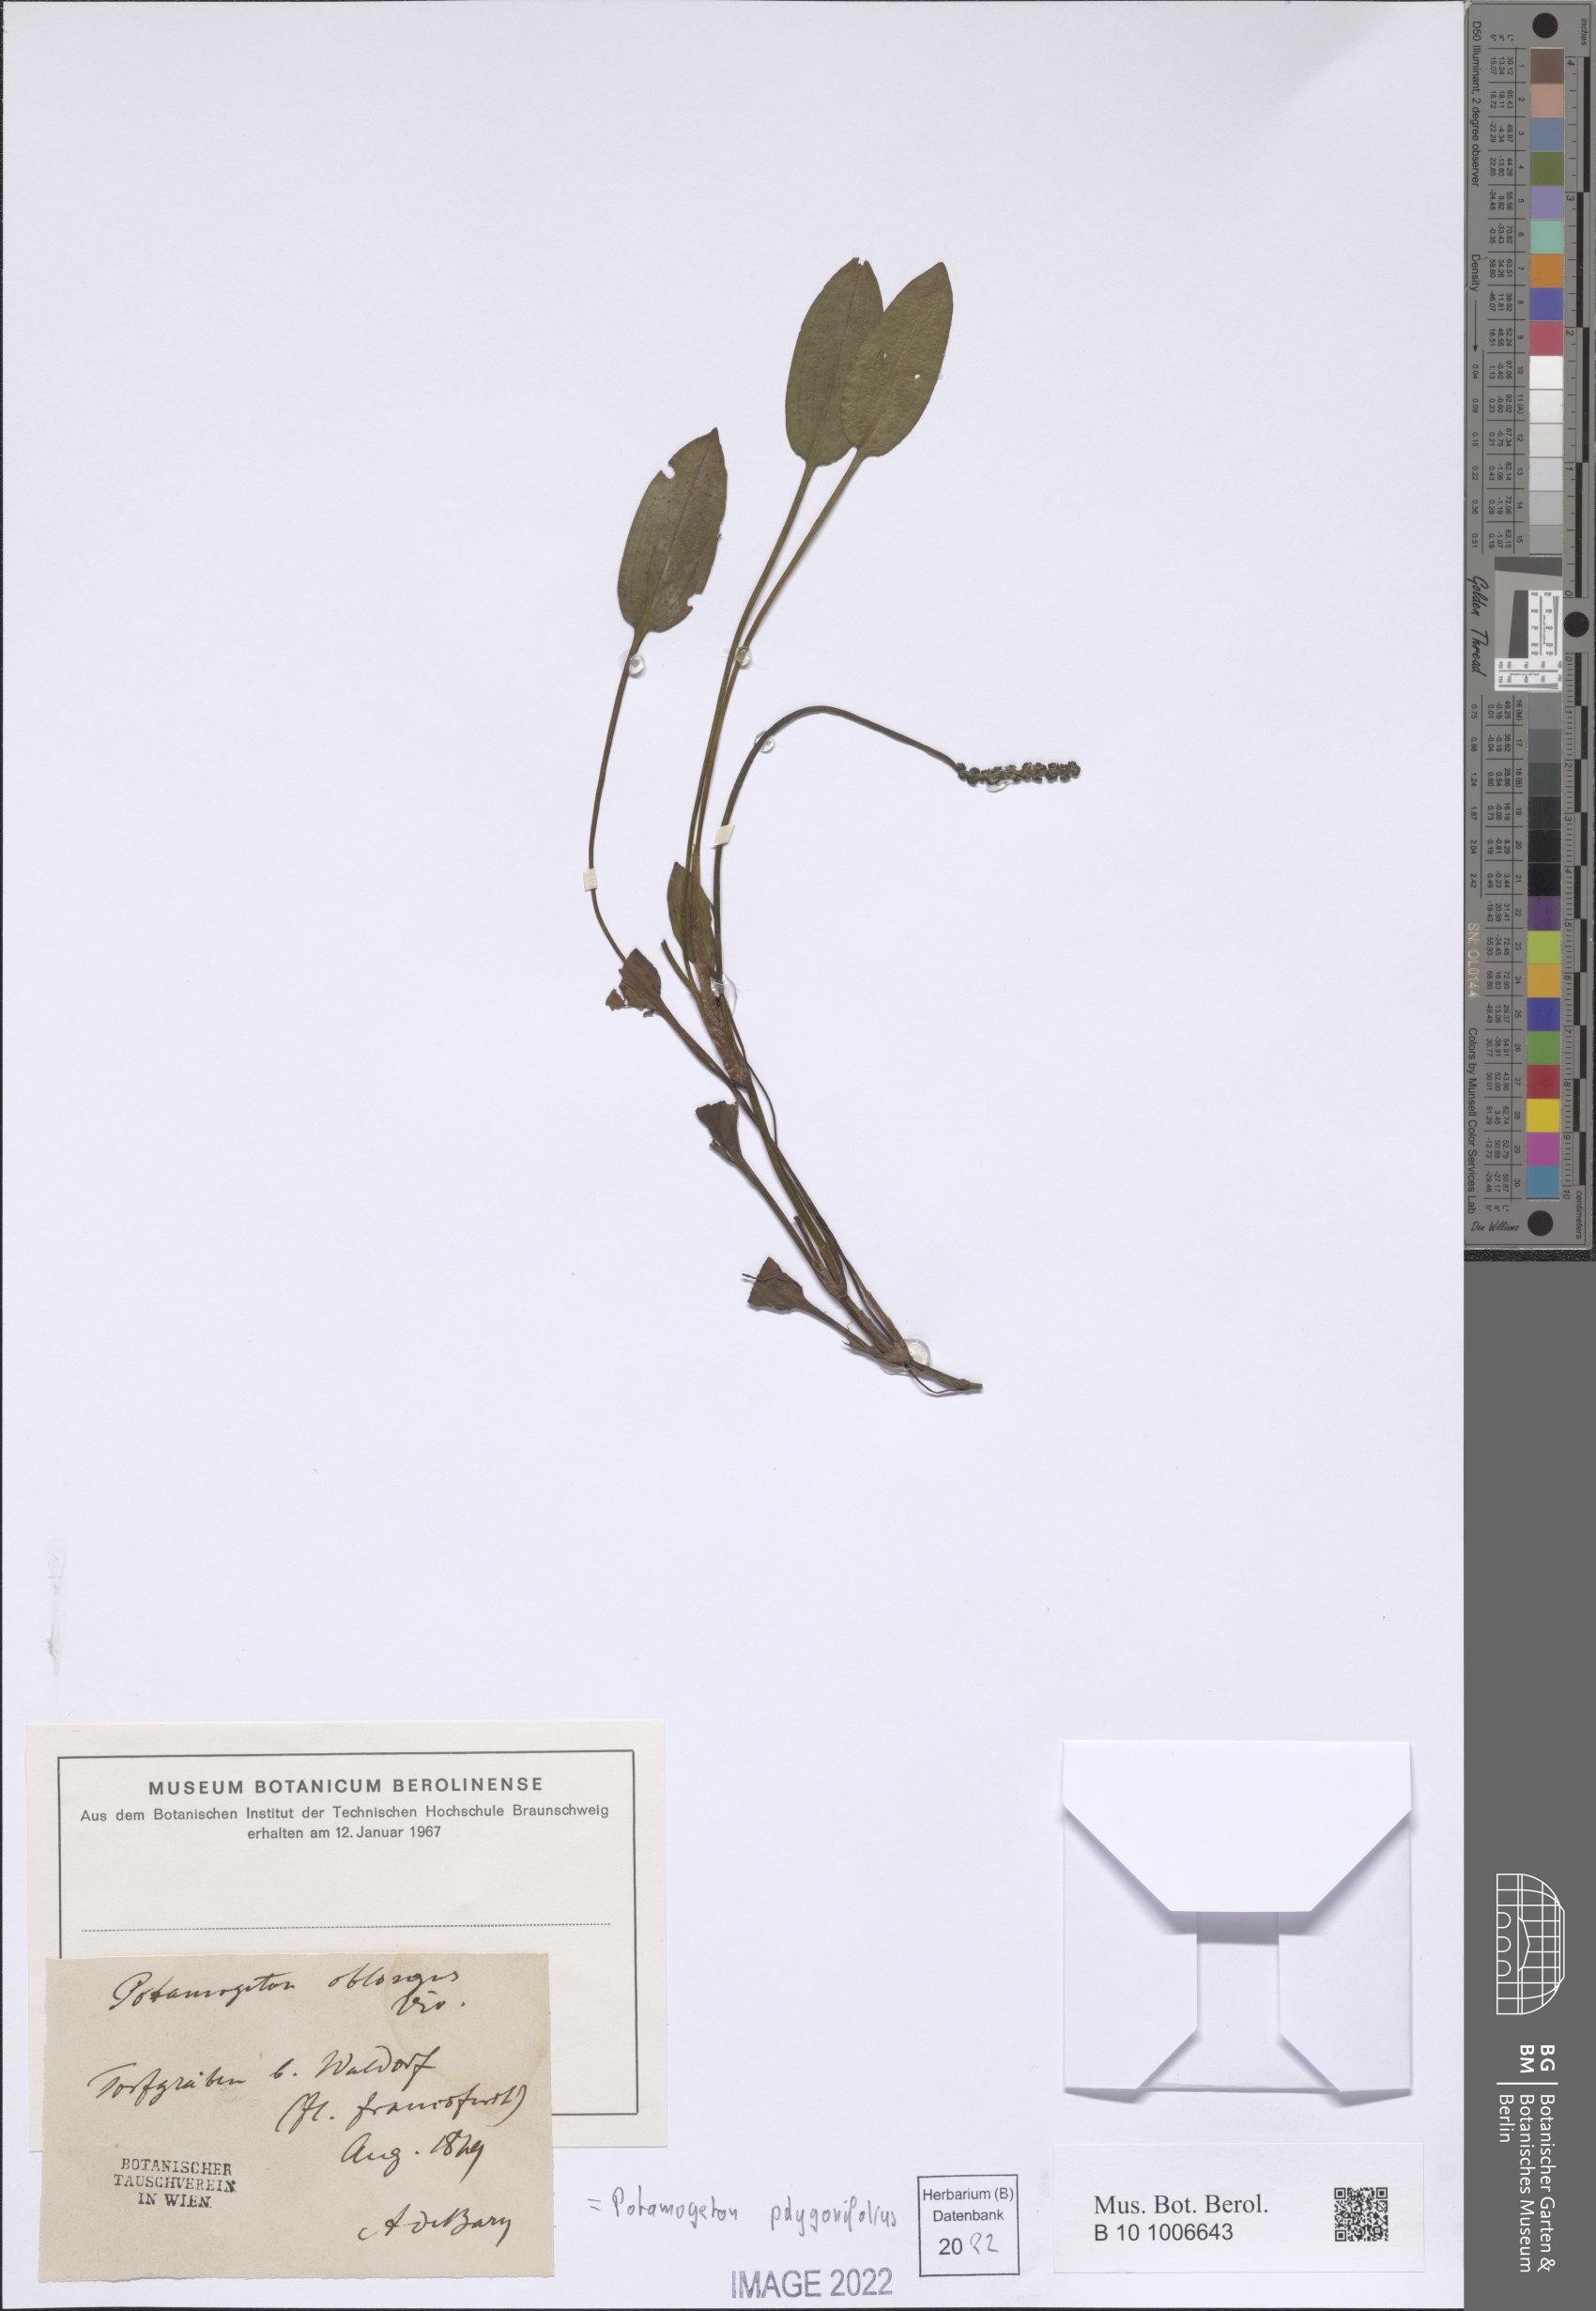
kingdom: Plantae
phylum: Tracheophyta
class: Liliopsida
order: Alismatales
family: Potamogetonaceae
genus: Potamogeton
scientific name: Potamogeton polygonifolius
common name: Bog pondweed
